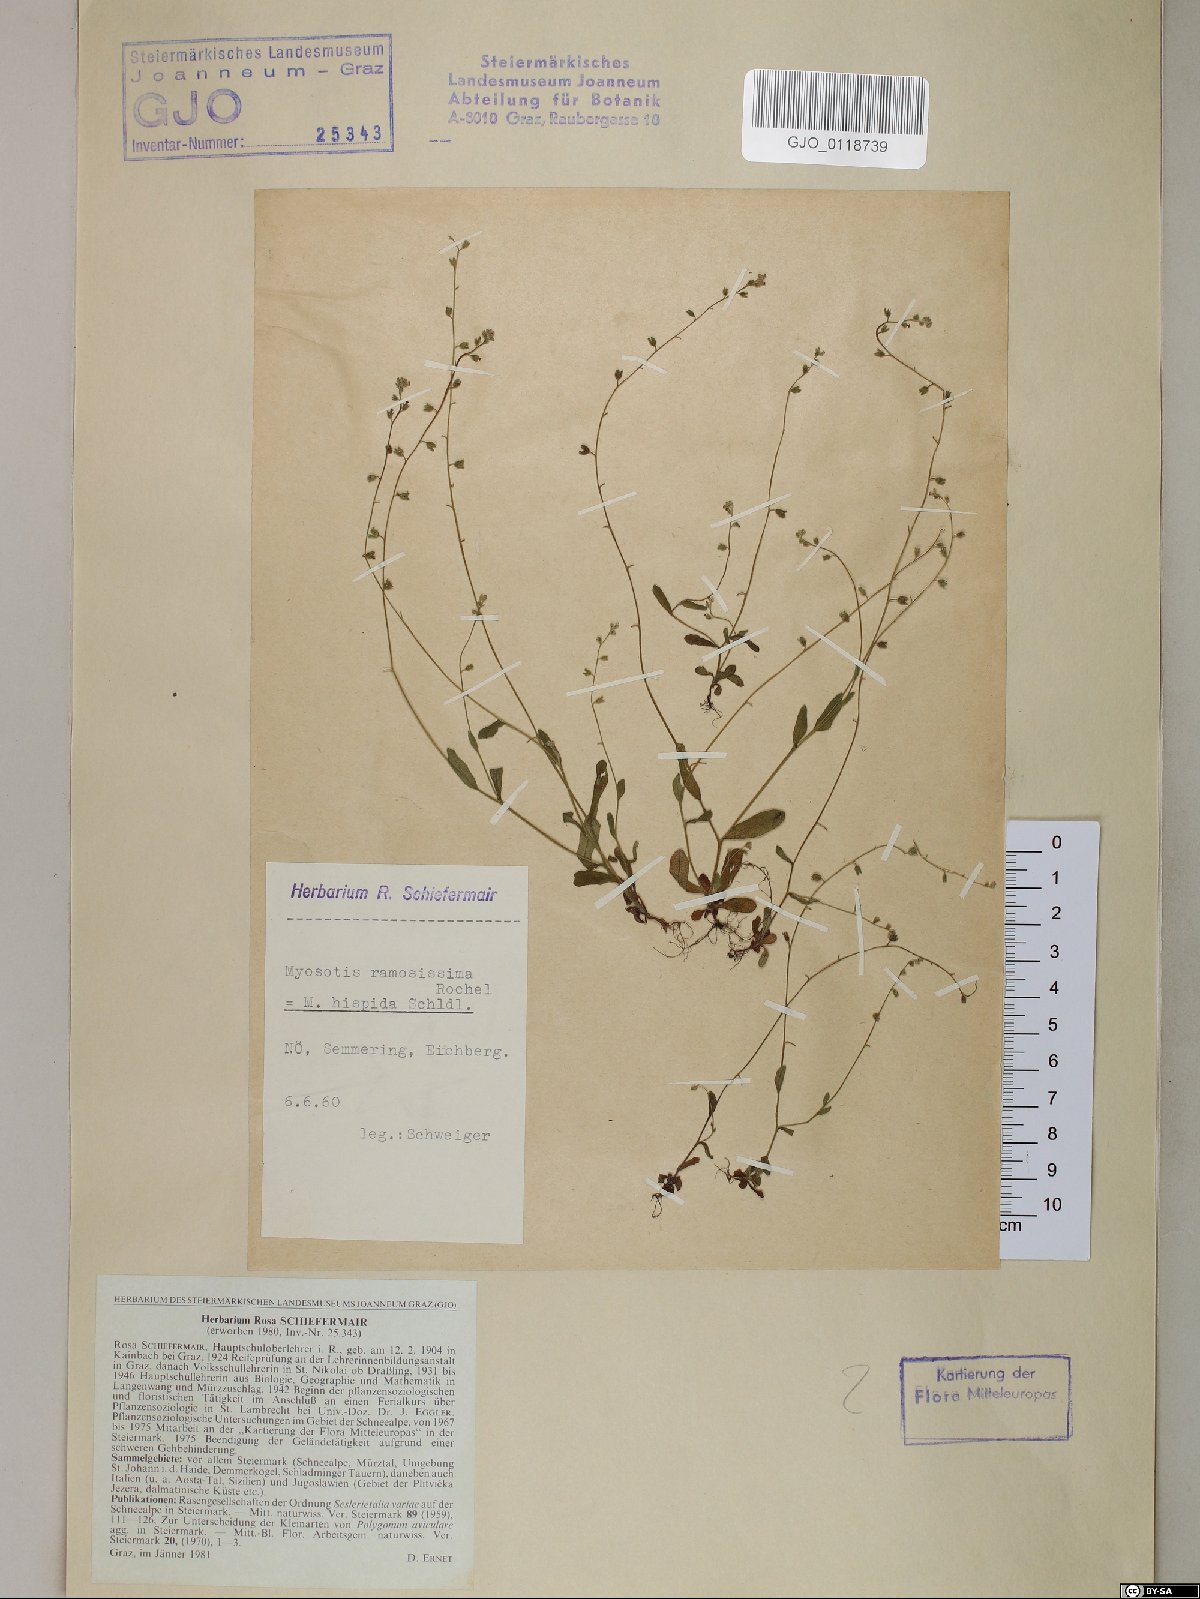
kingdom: Plantae
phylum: Tracheophyta
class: Magnoliopsida
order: Boraginales
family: Boraginaceae
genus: Myosotis
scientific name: Myosotis ramosissima
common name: Early forget-me-not
